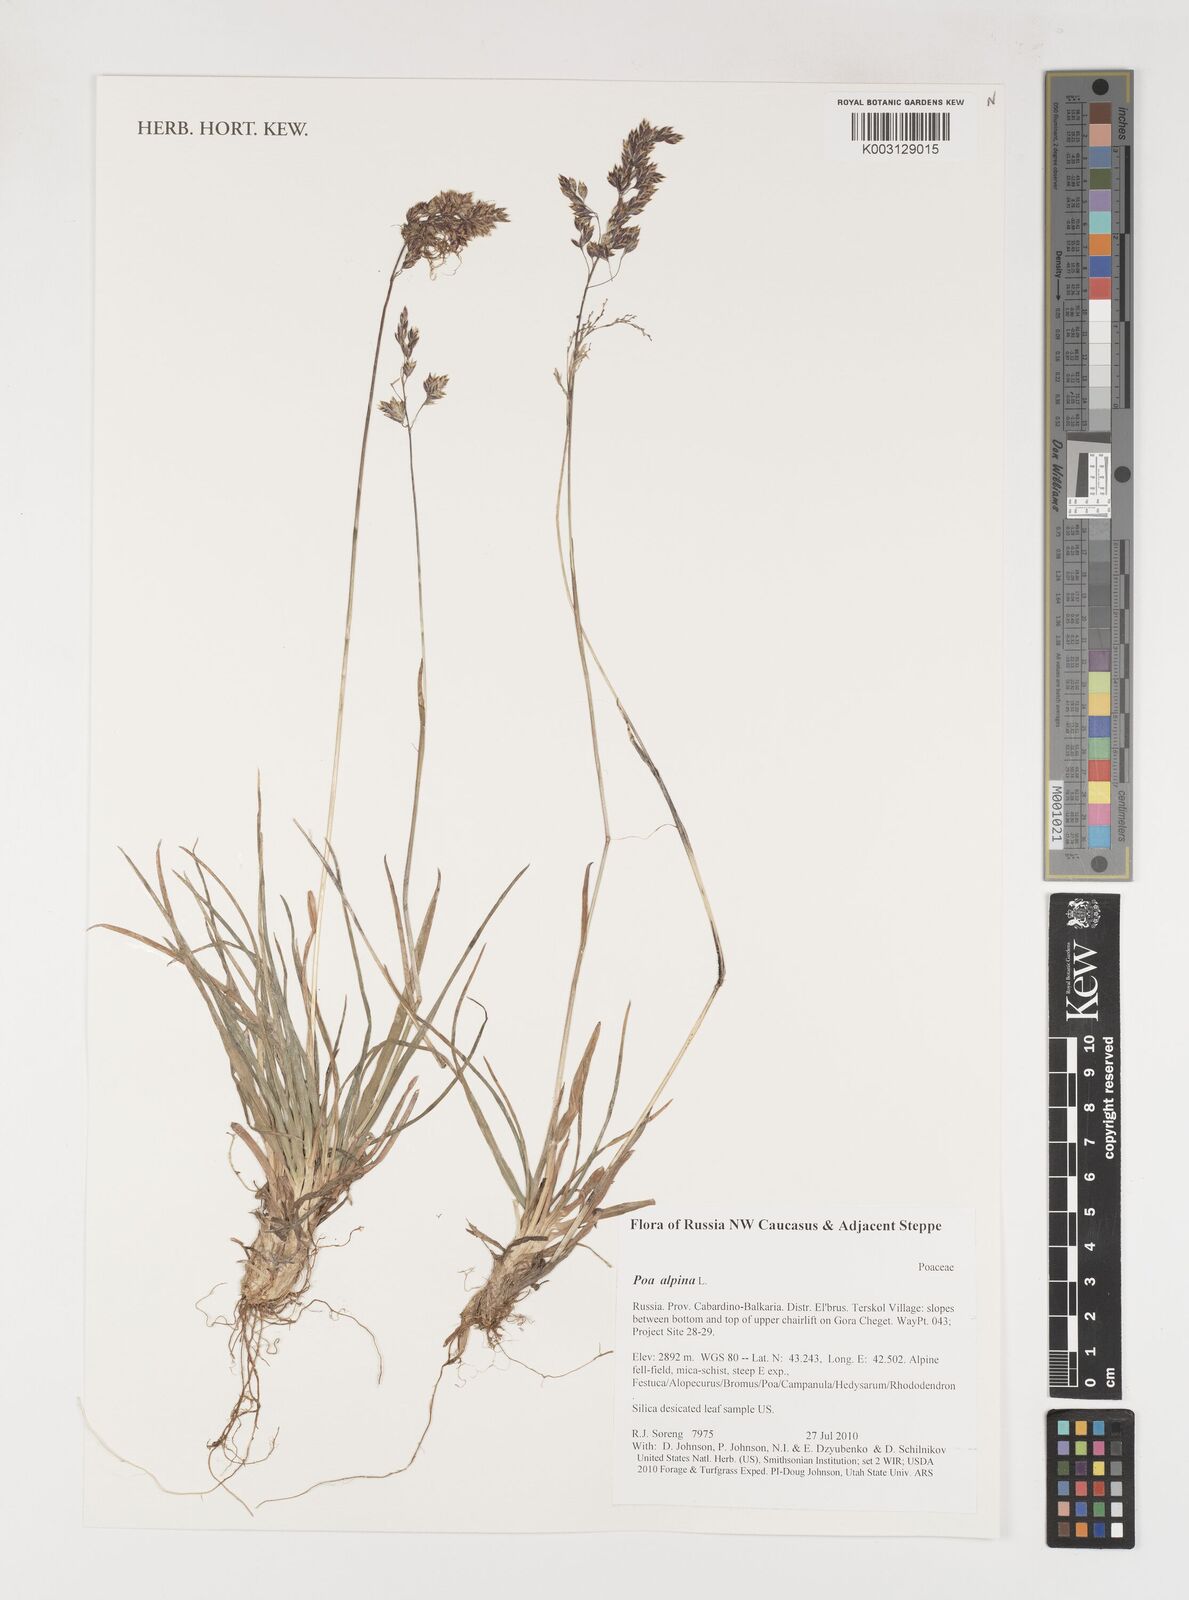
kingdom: Plantae
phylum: Tracheophyta
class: Liliopsida
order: Poales
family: Poaceae
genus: Poa
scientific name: Poa alpina
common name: Alpine bluegrass
